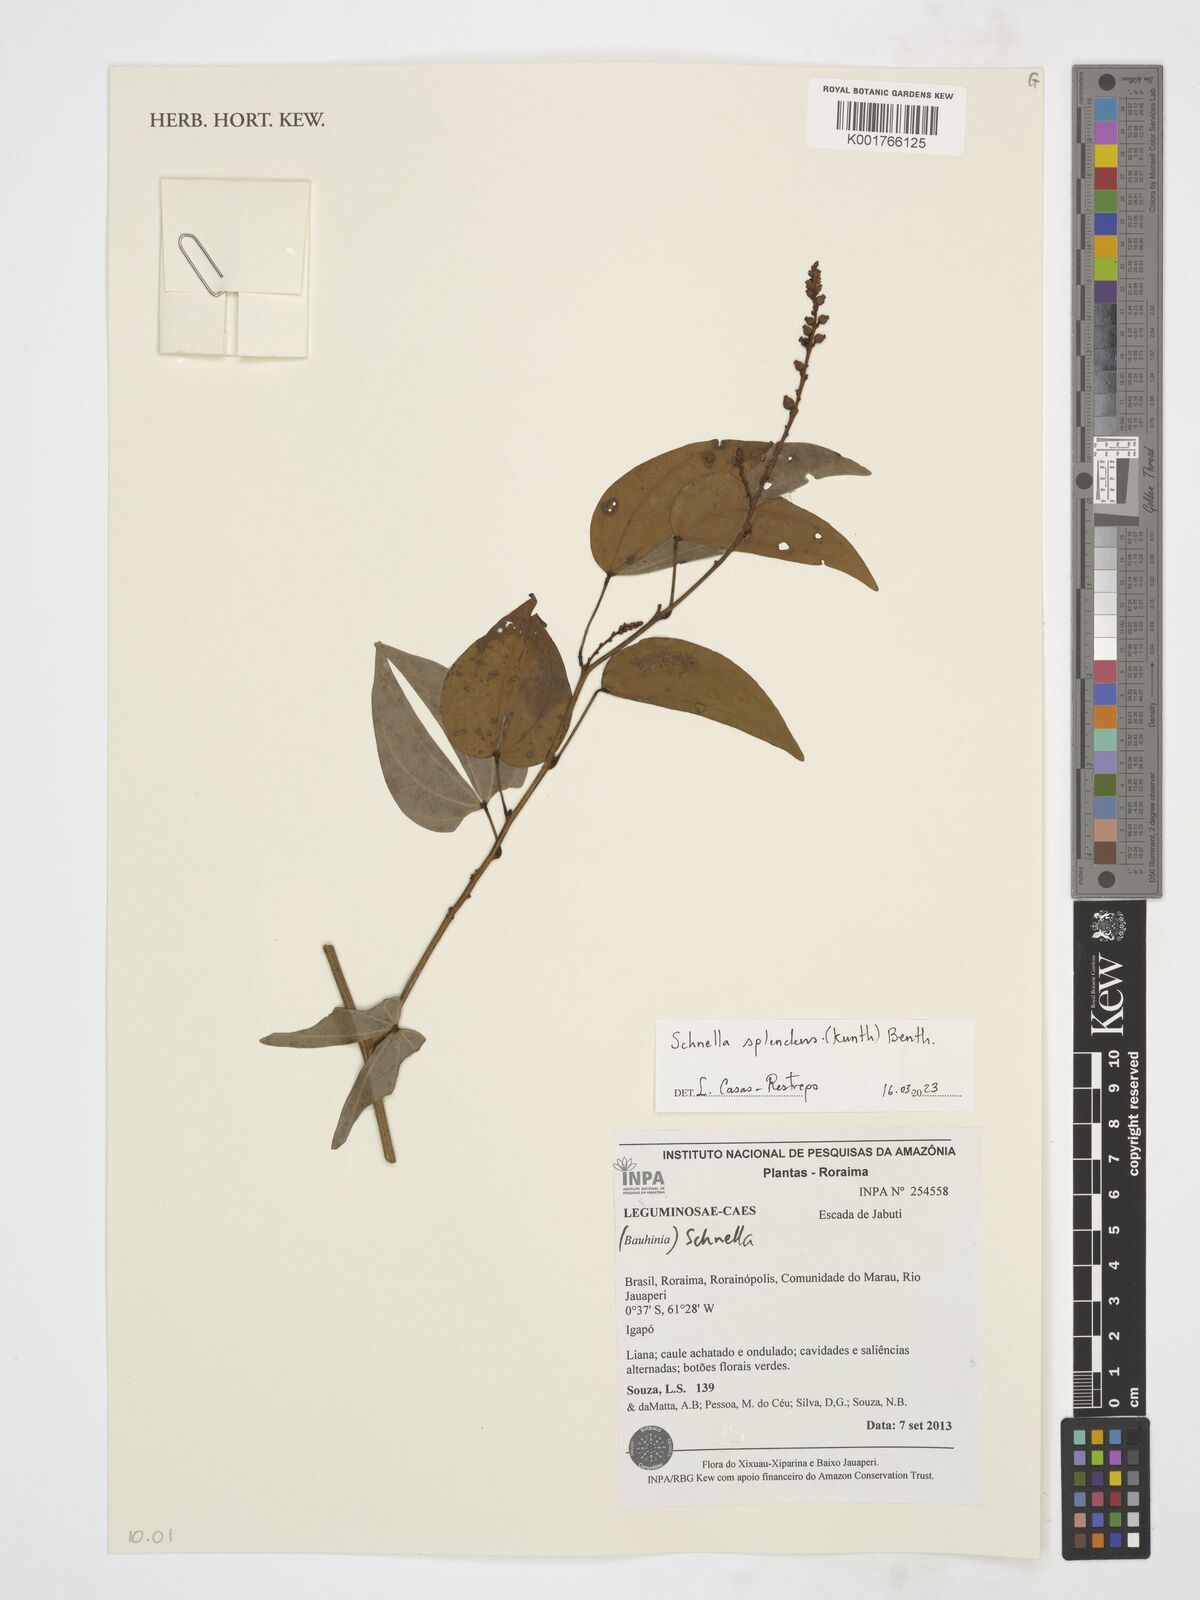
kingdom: Plantae
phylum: Tracheophyta
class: Magnoliopsida
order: Fabales
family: Fabaceae
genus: Schnella
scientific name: Schnella splendens
